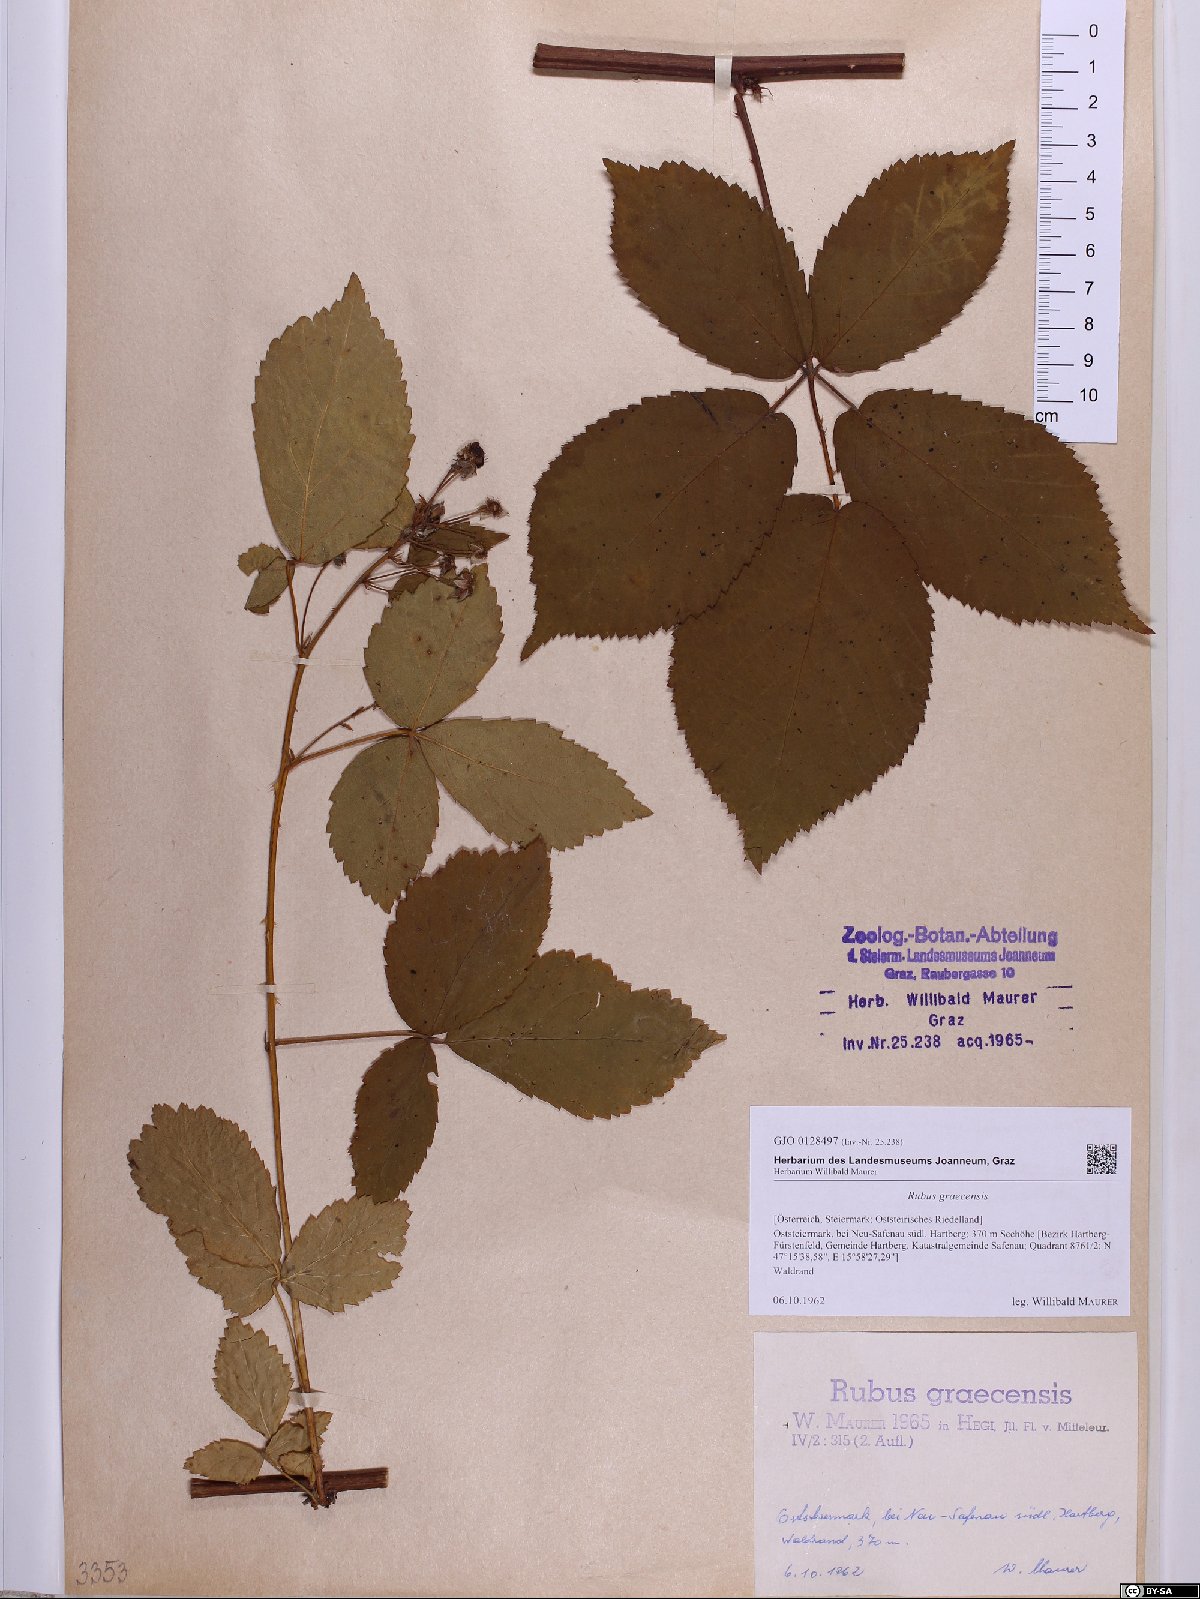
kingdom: Plantae
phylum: Tracheophyta
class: Magnoliopsida
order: Rosales
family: Rosaceae
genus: Rubus
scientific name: Rubus graecensis
